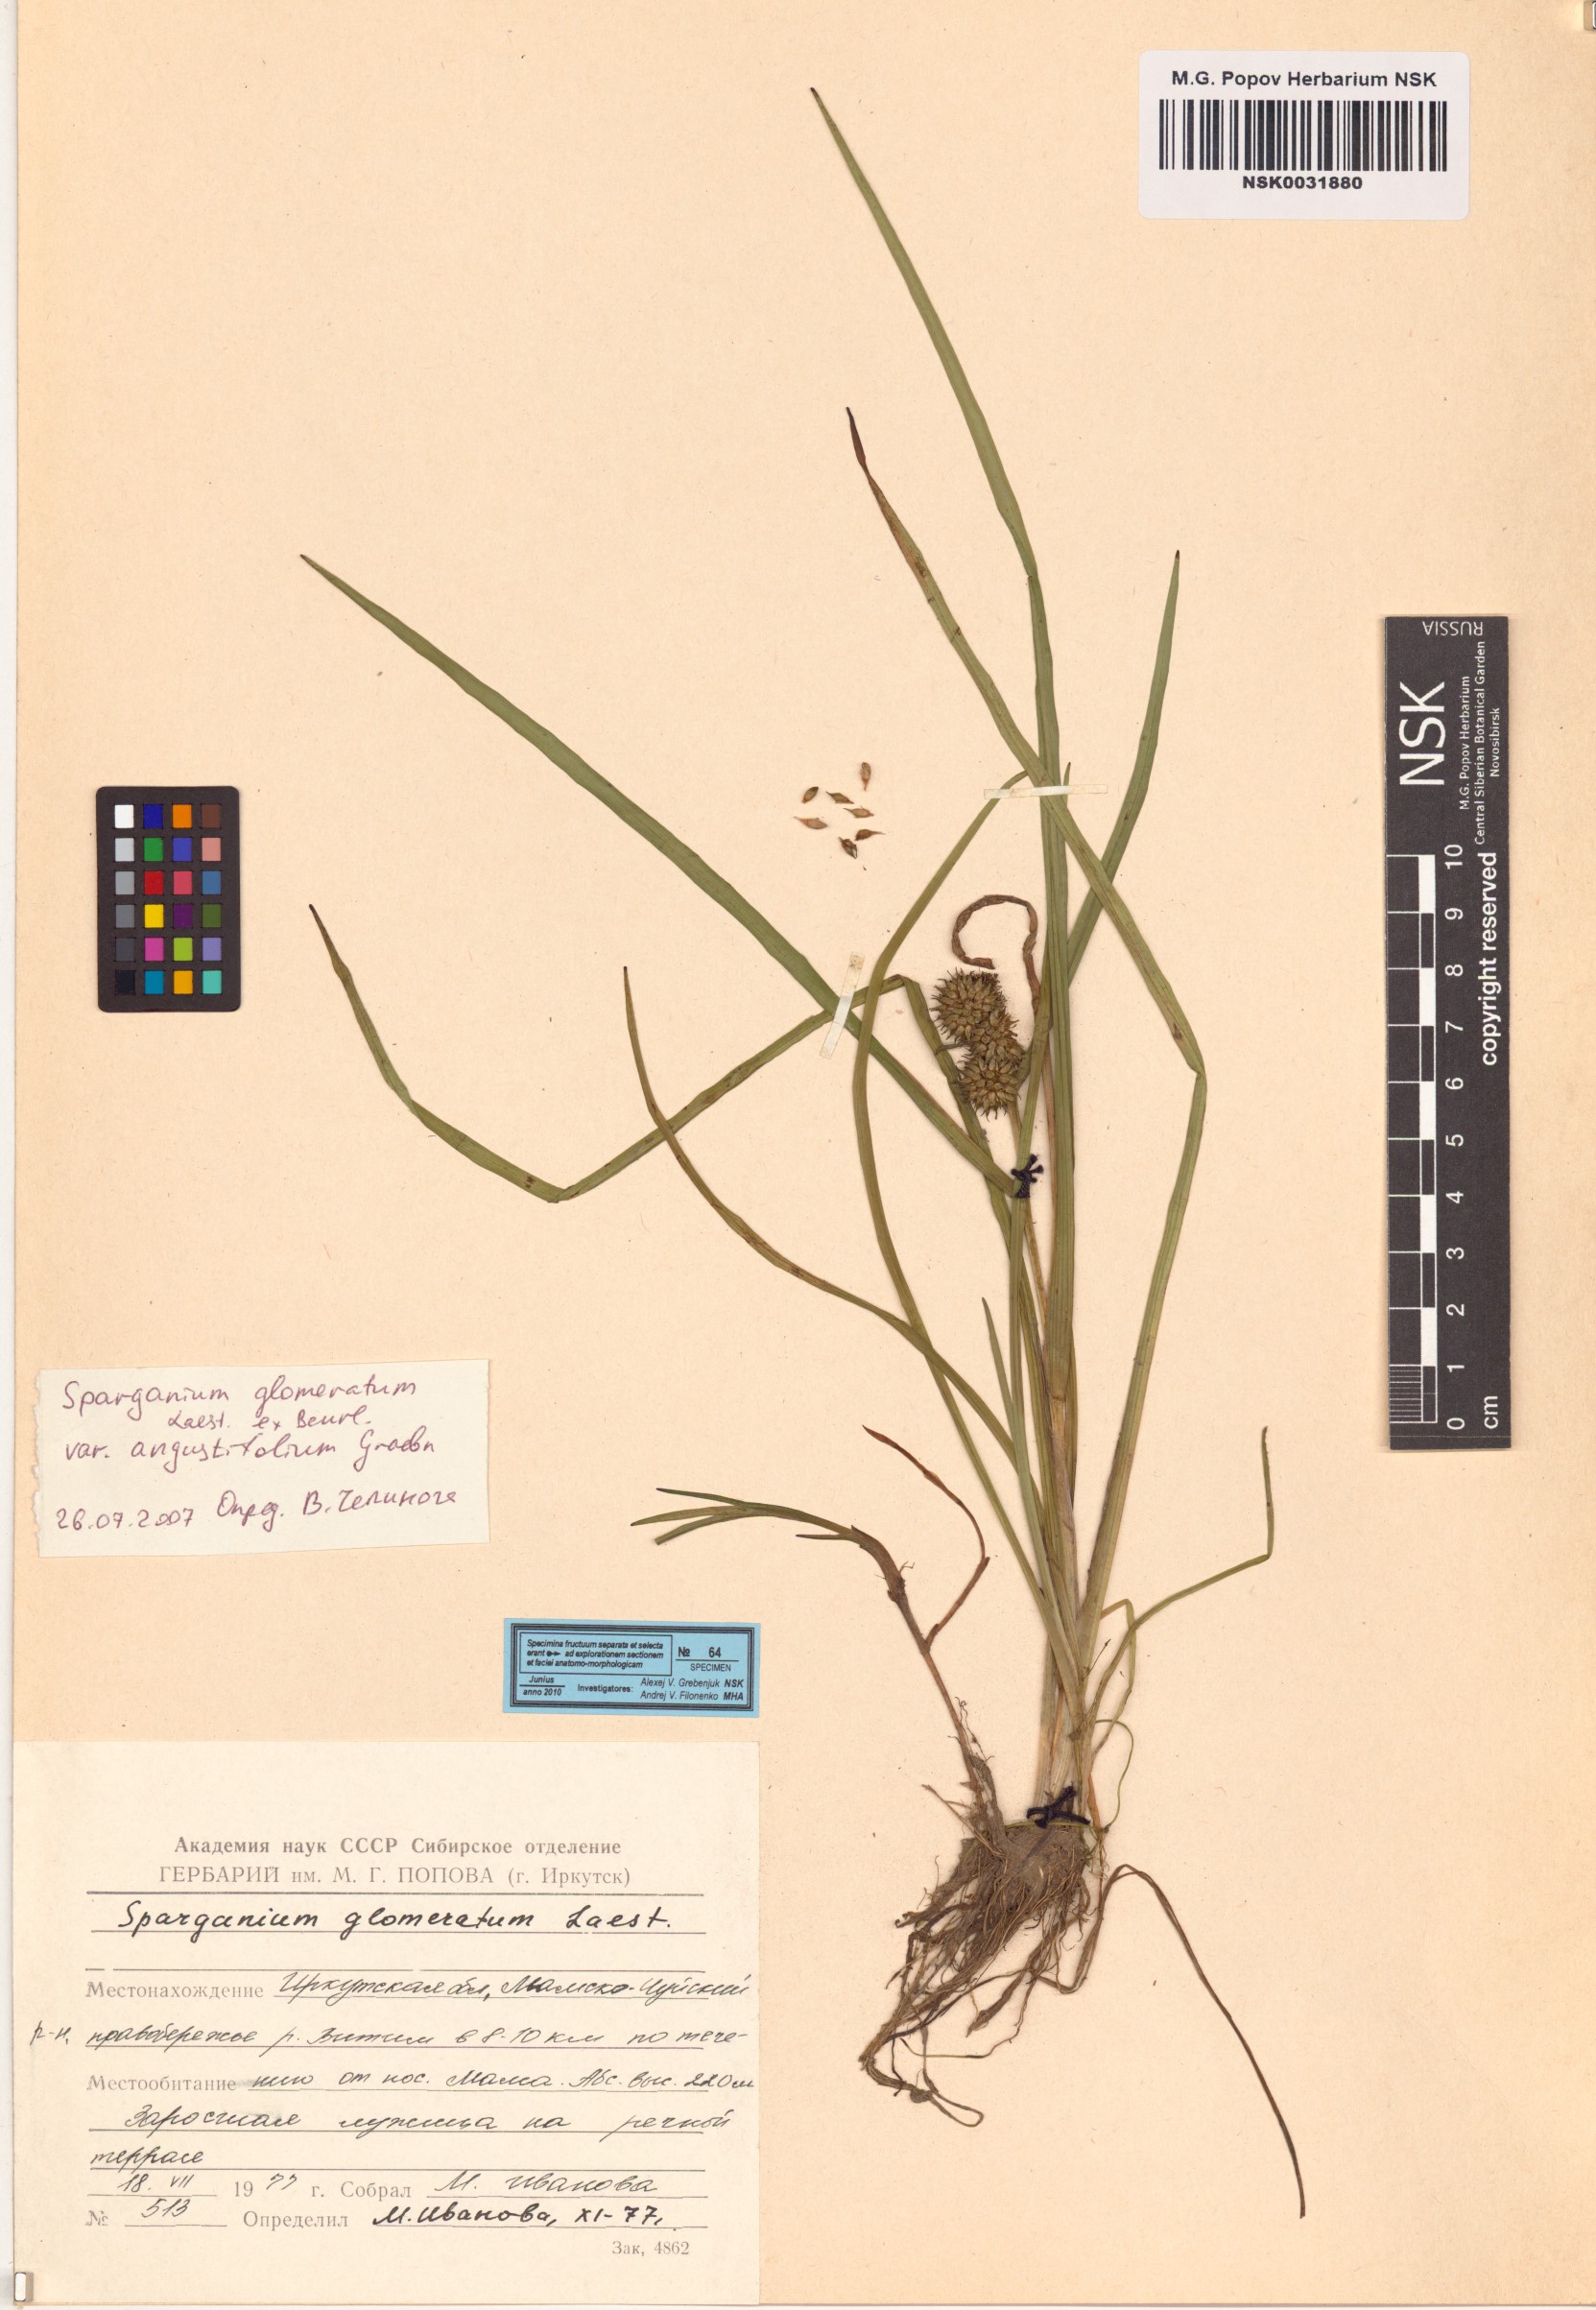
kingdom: Plantae
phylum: Tracheophyta
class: Liliopsida
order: Poales
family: Typhaceae
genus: Sparganium
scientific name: Sparganium glomeratum
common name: Clustered burreed
